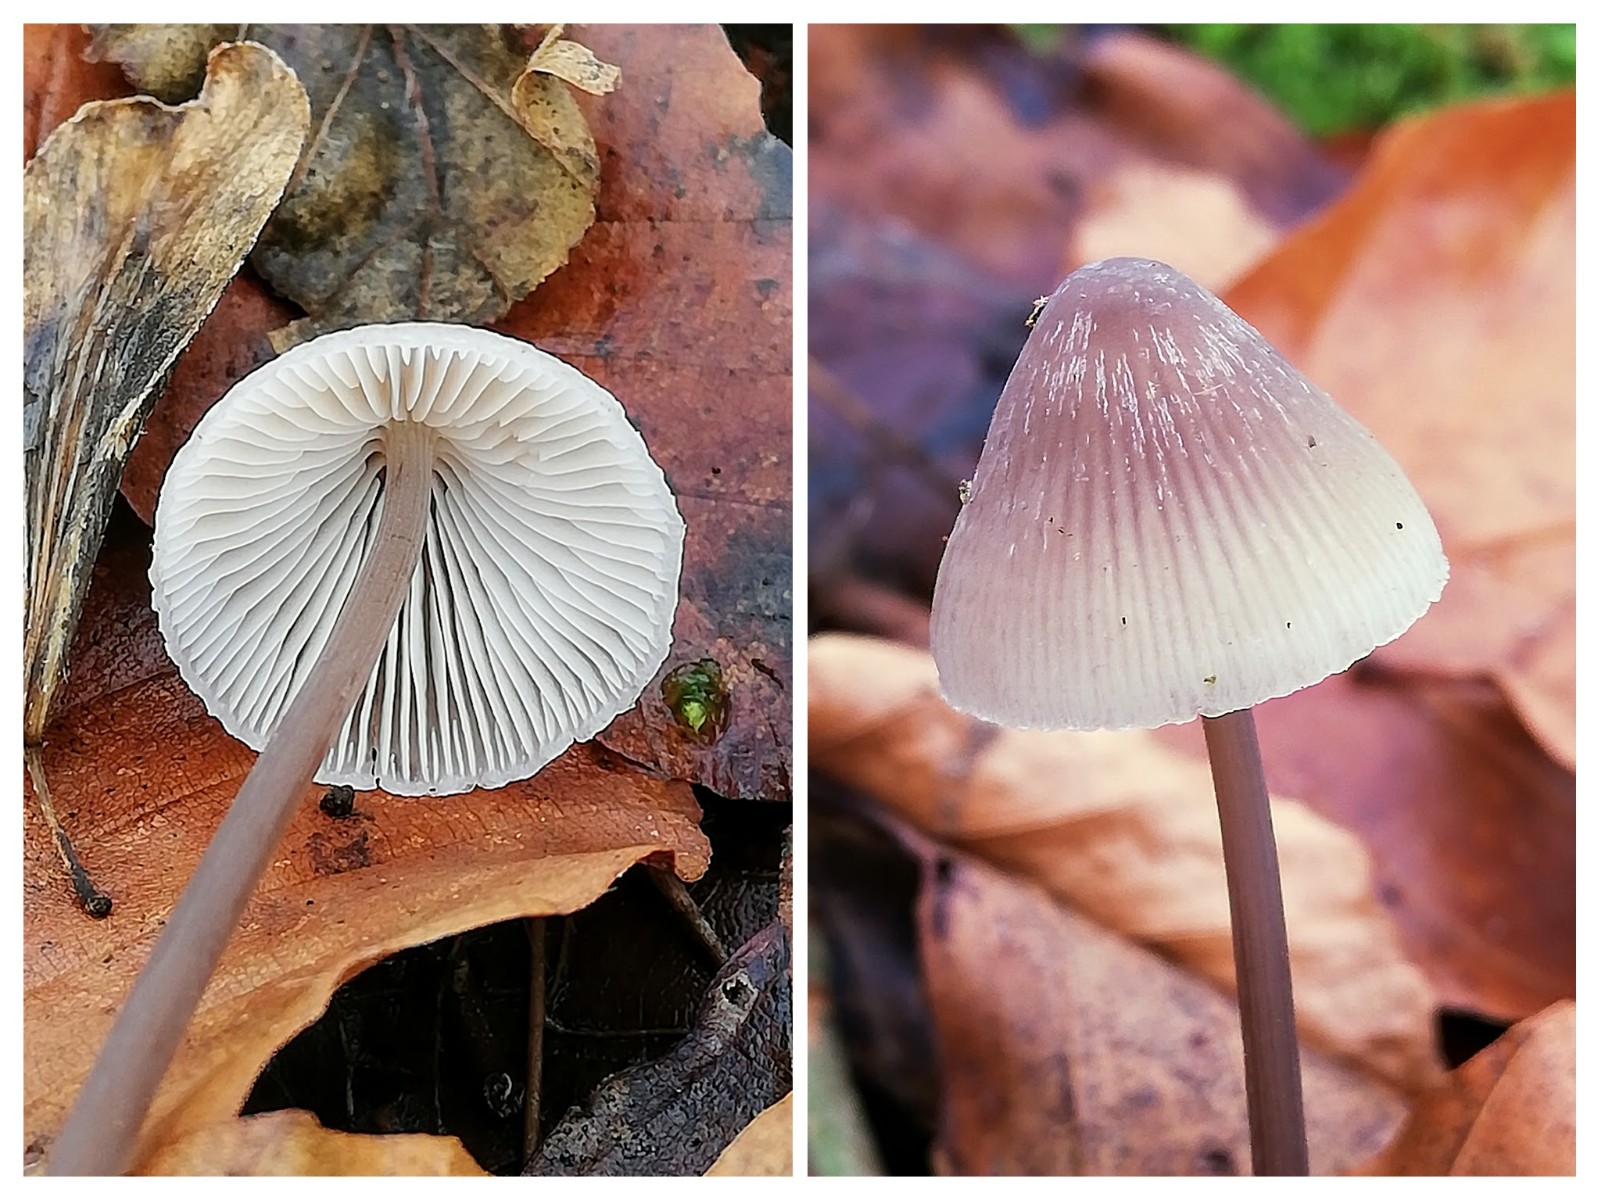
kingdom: Fungi
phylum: Basidiomycota
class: Agaricomycetes
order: Agaricales
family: Mycenaceae
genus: Mycena
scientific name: Mycena
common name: huesvamp
